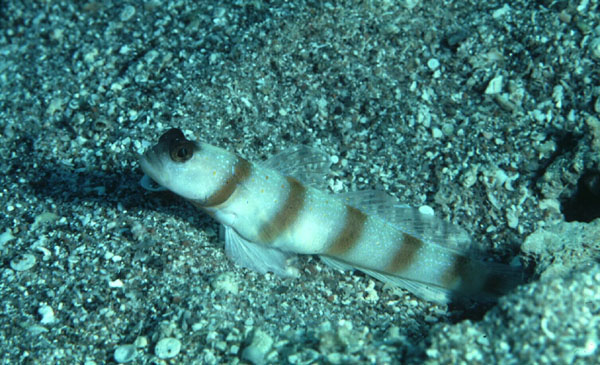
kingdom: Animalia
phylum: Chordata
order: Perciformes
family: Gobiidae
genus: Amblyeleotris
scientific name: Amblyeleotris sungami
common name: Magnus' prawn-goby
